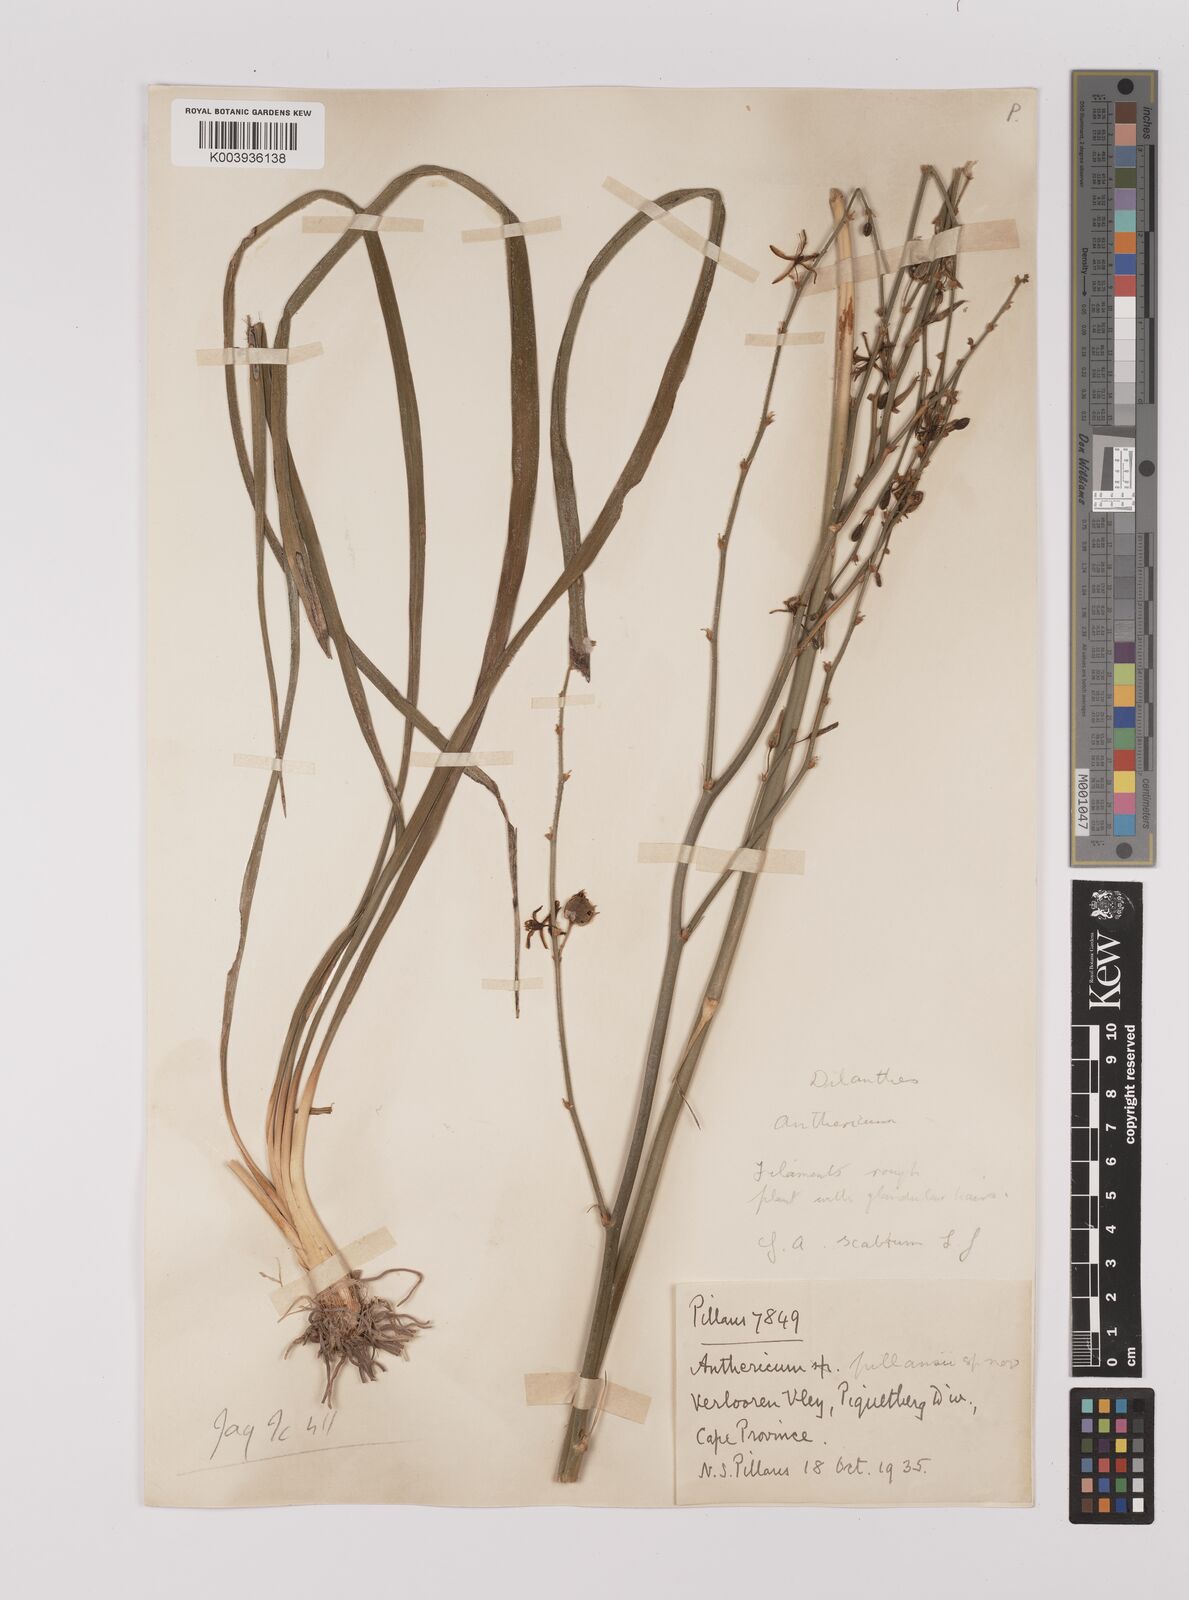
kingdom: Plantae
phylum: Tracheophyta
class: Liliopsida
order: Asparagales
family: Asparagaceae
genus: Chlorophytum
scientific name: Chlorophytum
